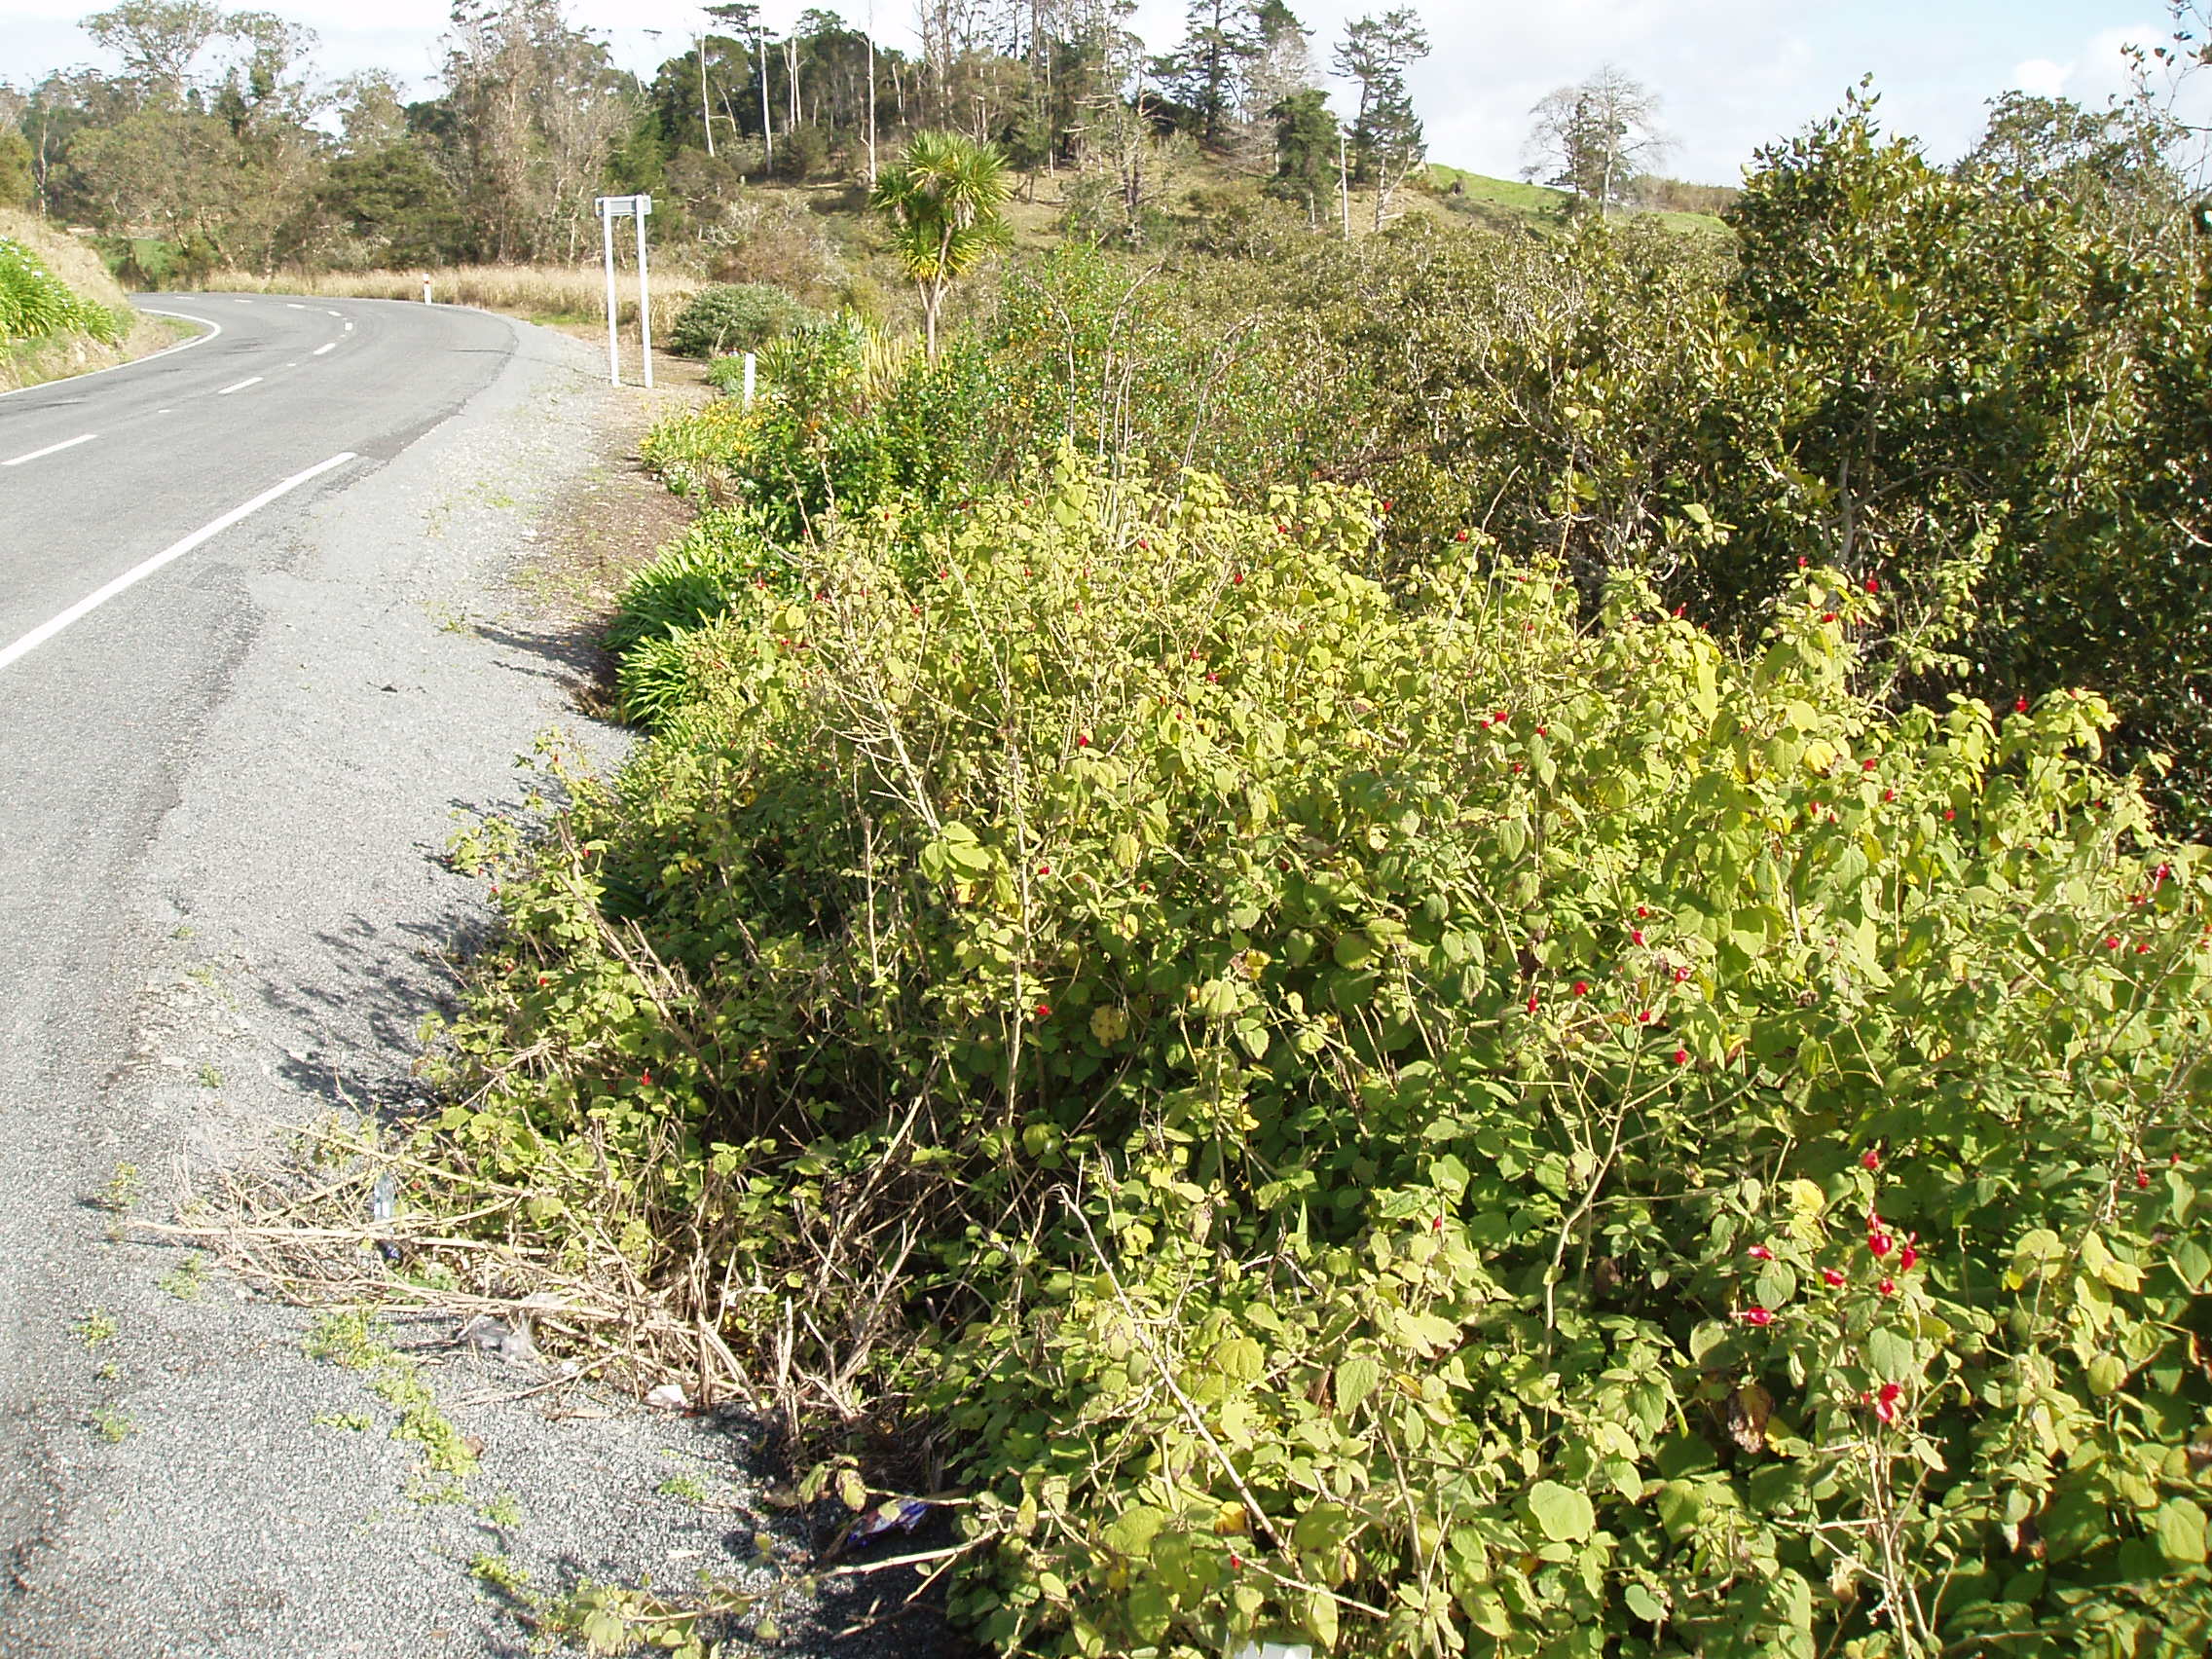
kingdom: Plantae
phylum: Tracheophyta
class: Magnoliopsida
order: Malvales
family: Malvaceae
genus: Malvaviscus
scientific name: Malvaviscus arboreus
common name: Wax mallow
